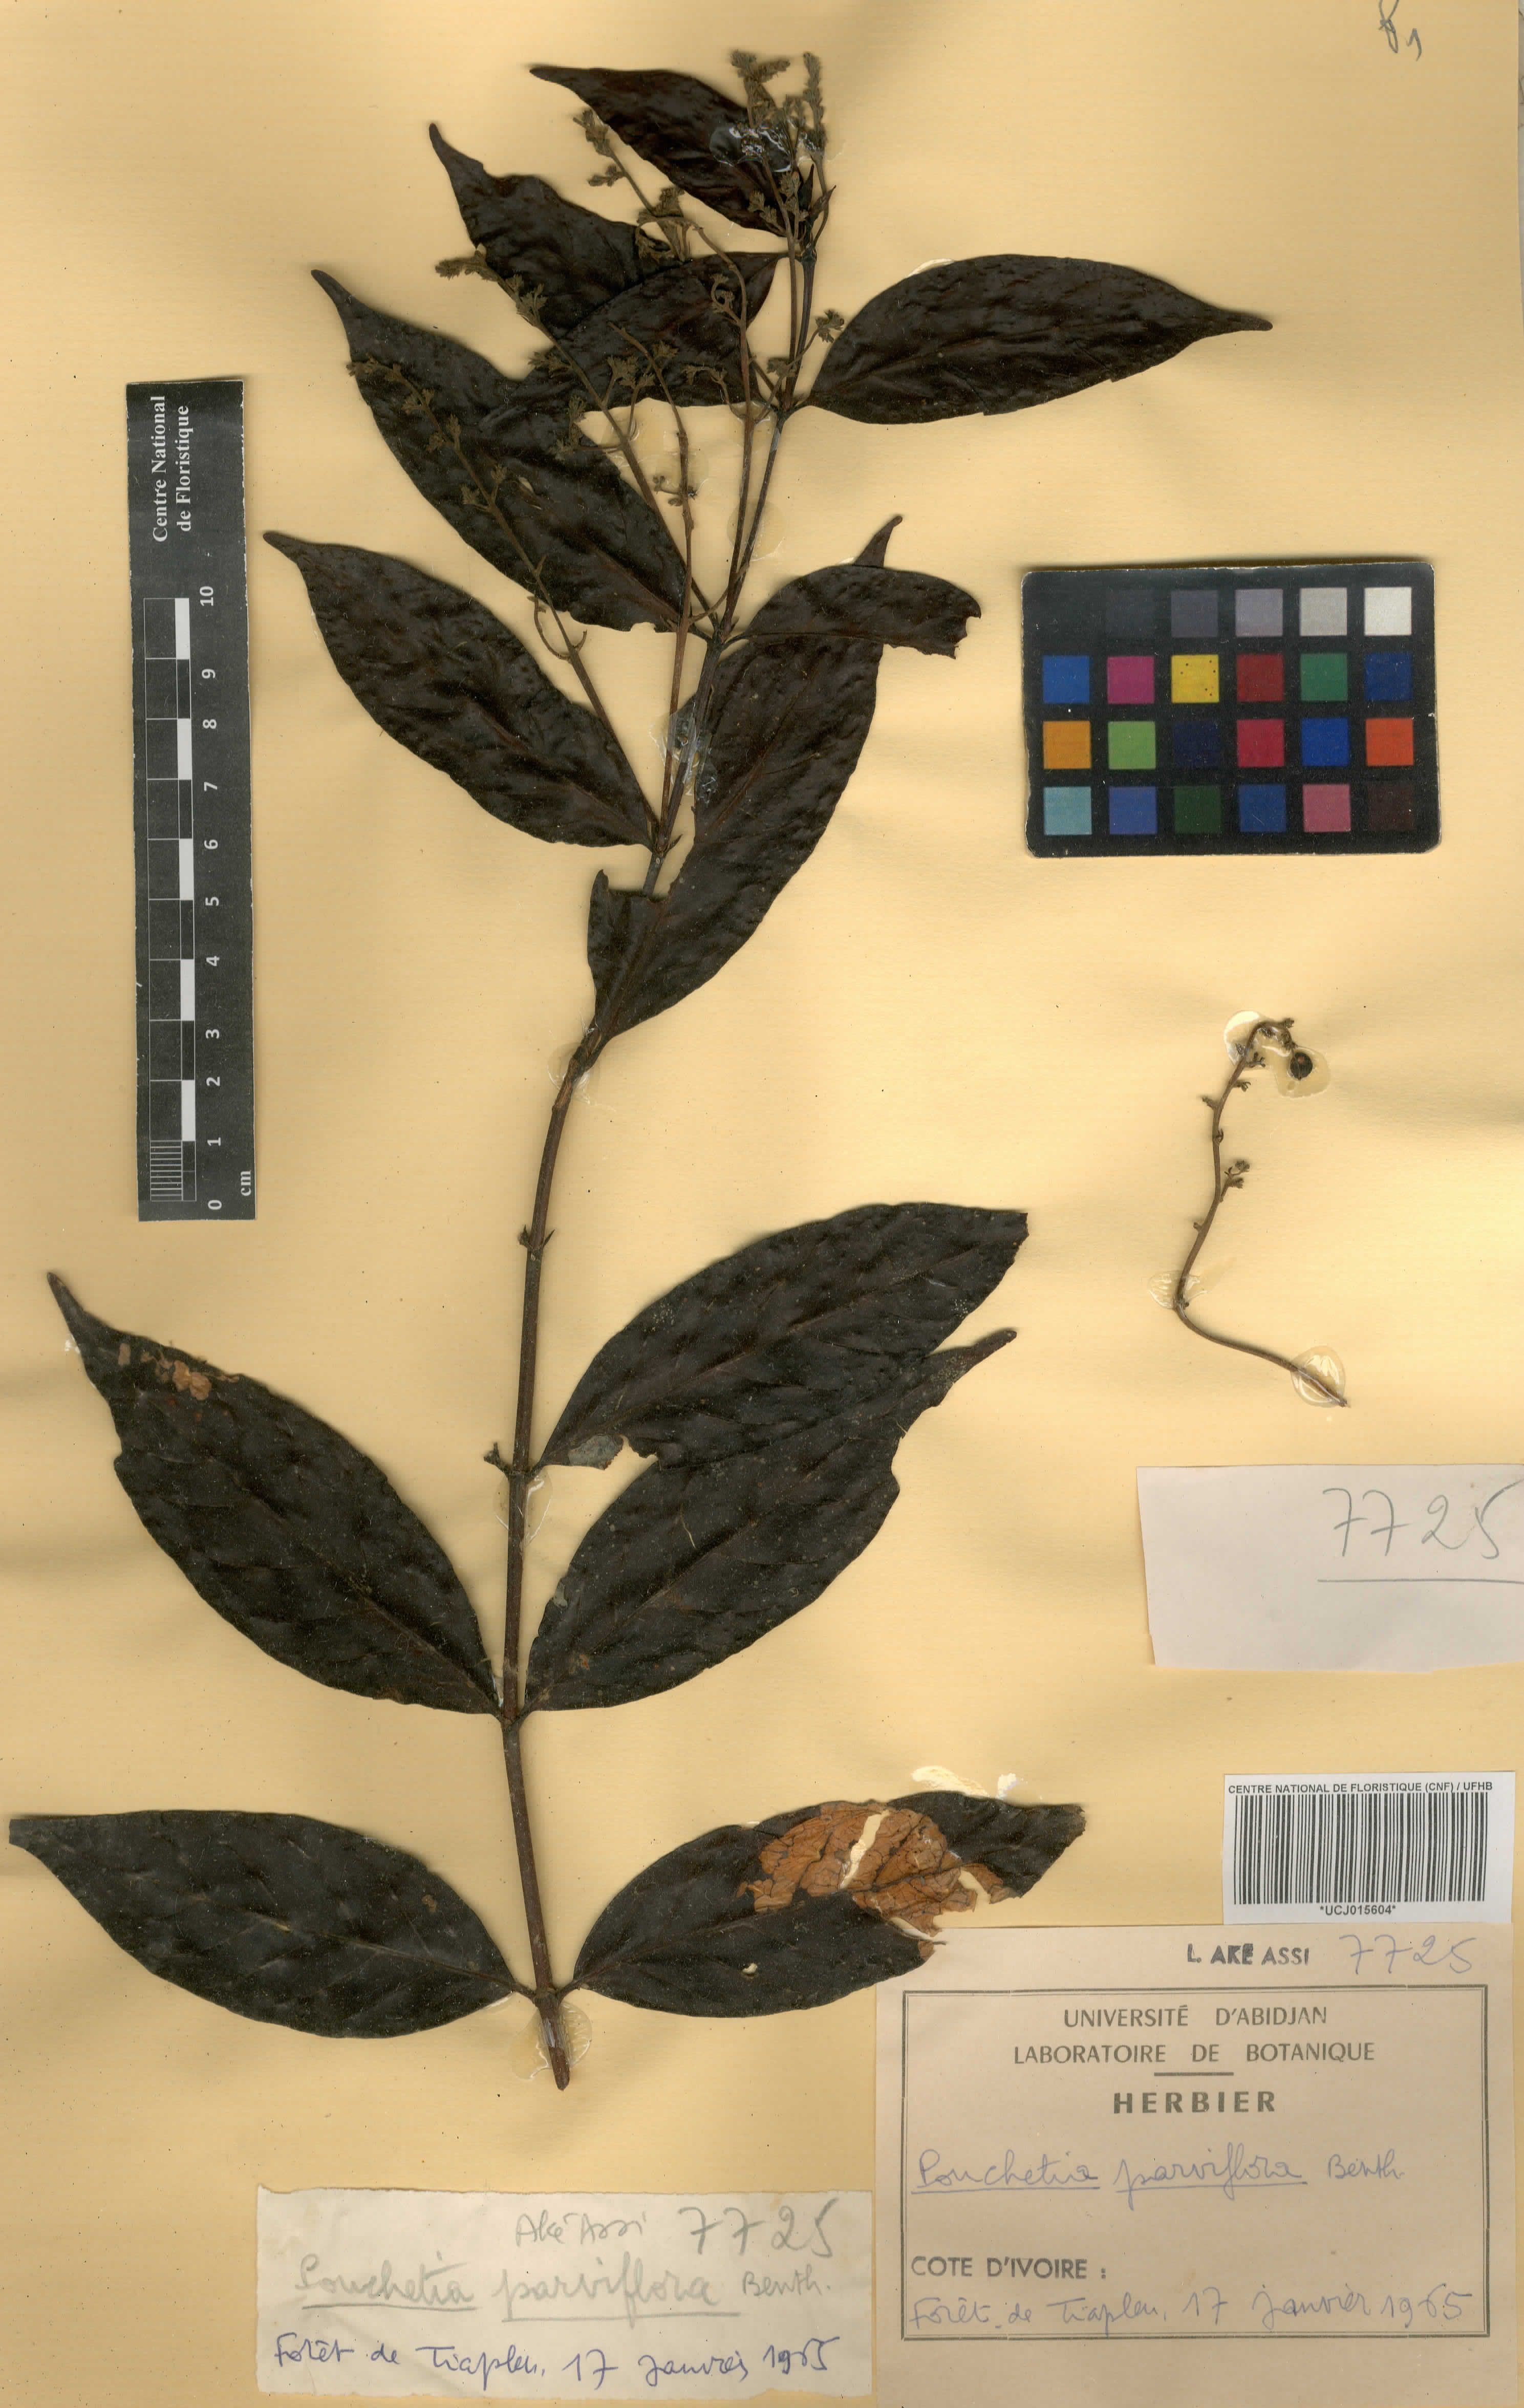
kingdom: Plantae
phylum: Tracheophyta
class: Magnoliopsida
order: Gentianales
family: Rubiaceae
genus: Pouchetia
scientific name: Pouchetia parviflora
